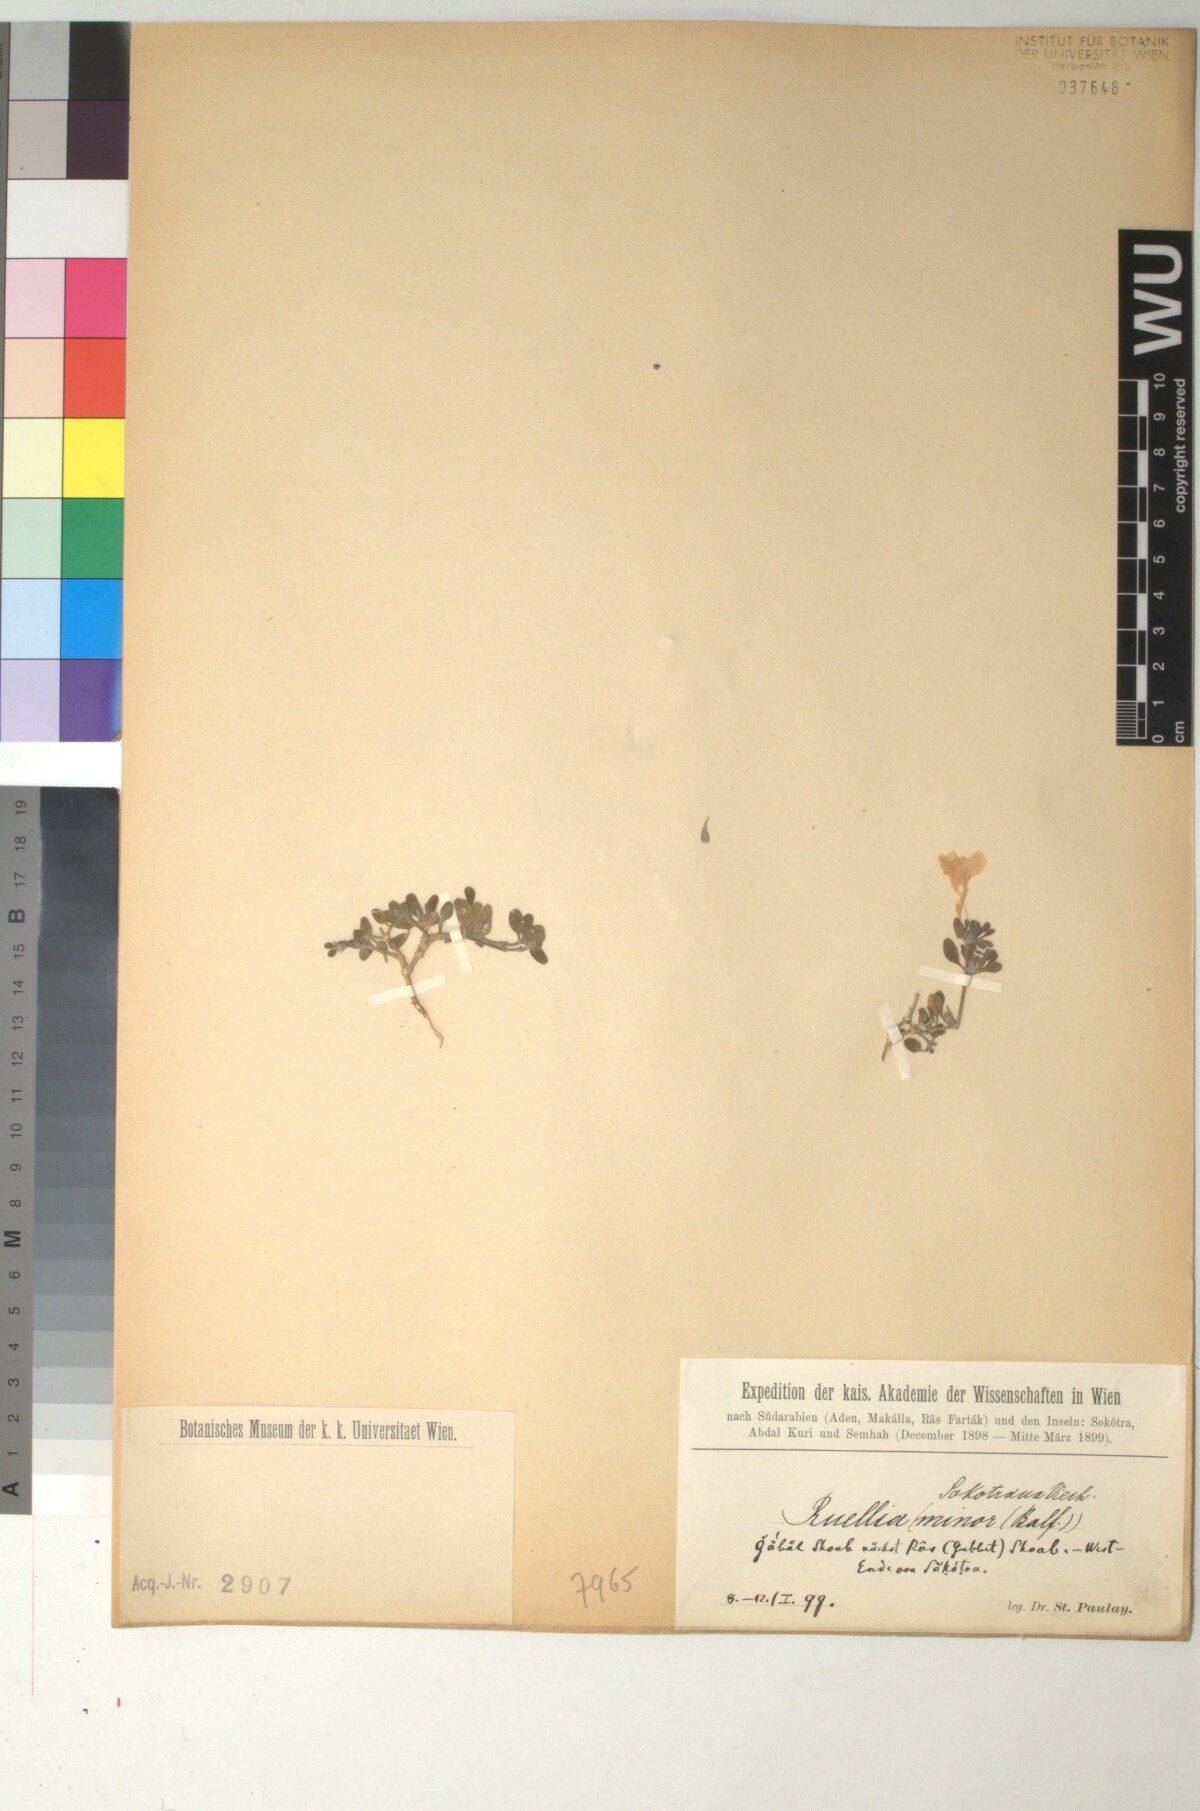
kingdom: Plantae
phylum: Tracheophyta
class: Magnoliopsida
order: Lamiales
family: Acanthaceae
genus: Ruellia
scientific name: Ruellia patula
